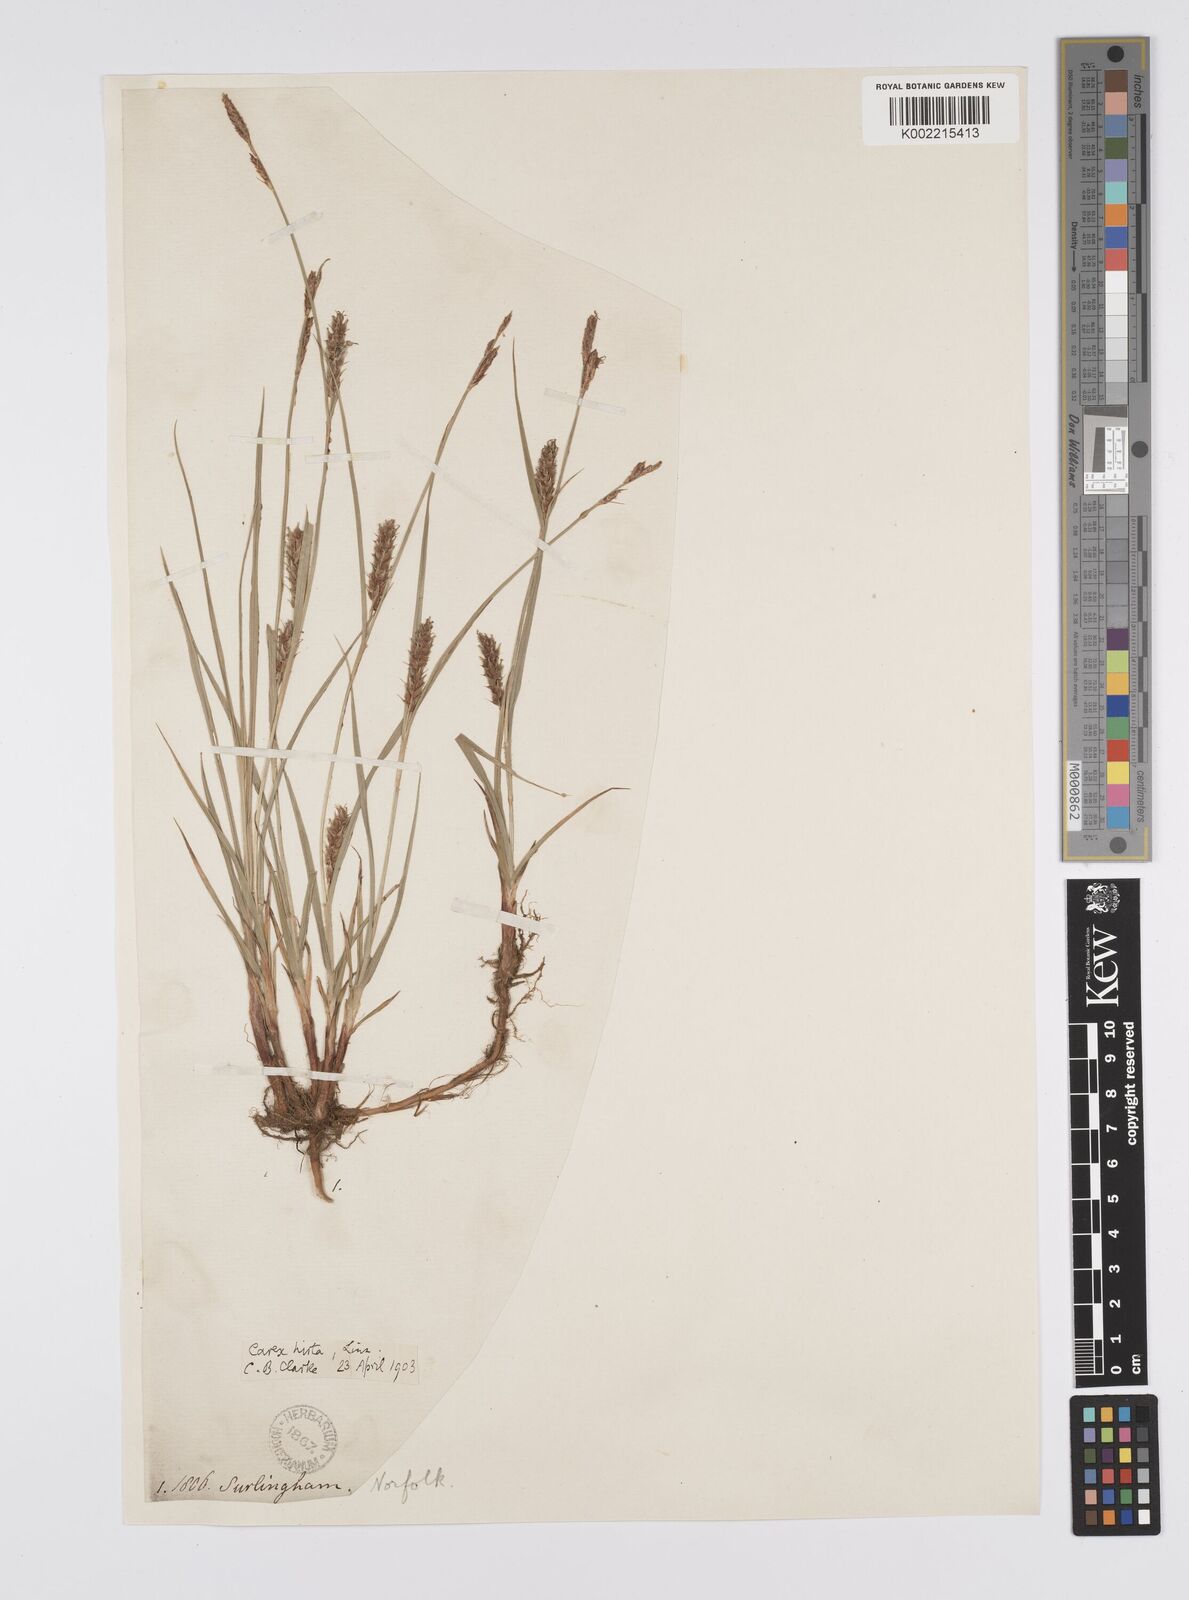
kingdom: Plantae
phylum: Tracheophyta
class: Liliopsida
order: Poales
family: Cyperaceae
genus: Carex
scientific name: Carex hirta
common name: Hairy sedge
